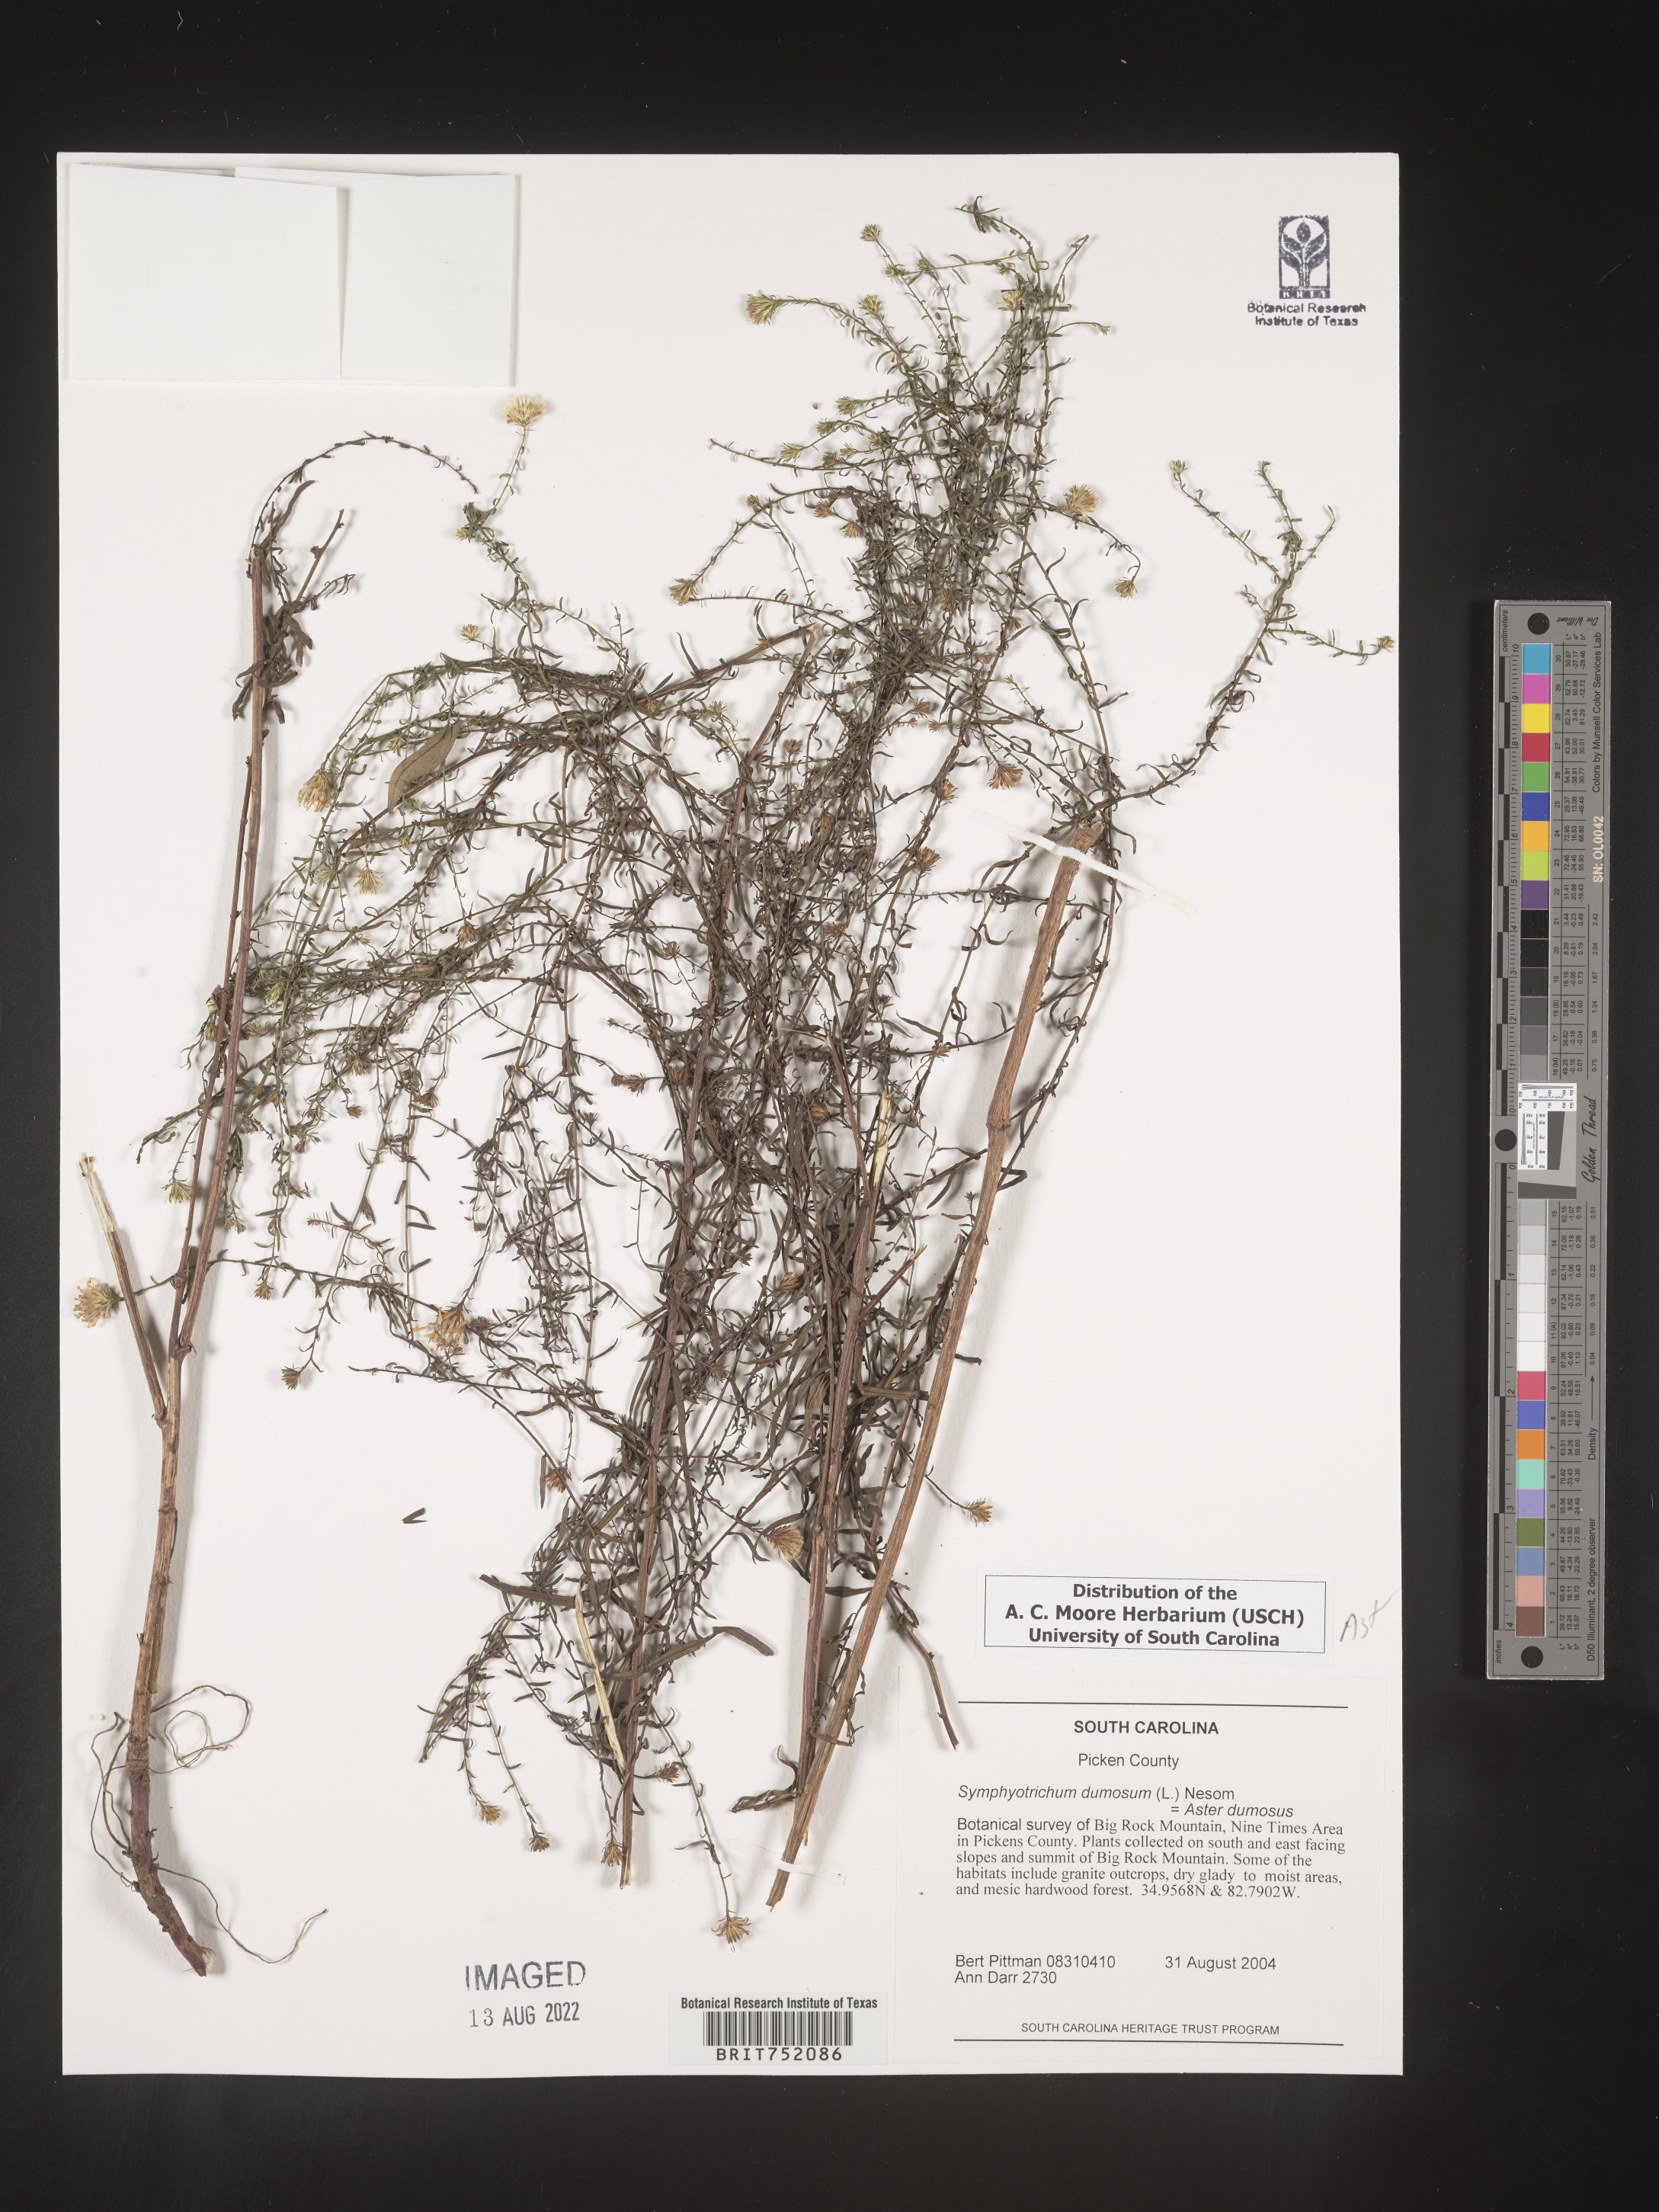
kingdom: Plantae
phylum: Tracheophyta
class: Magnoliopsida
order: Asterales
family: Asteraceae
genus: Symphyotrichum
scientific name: Symphyotrichum dumosum
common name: Bushy aster
